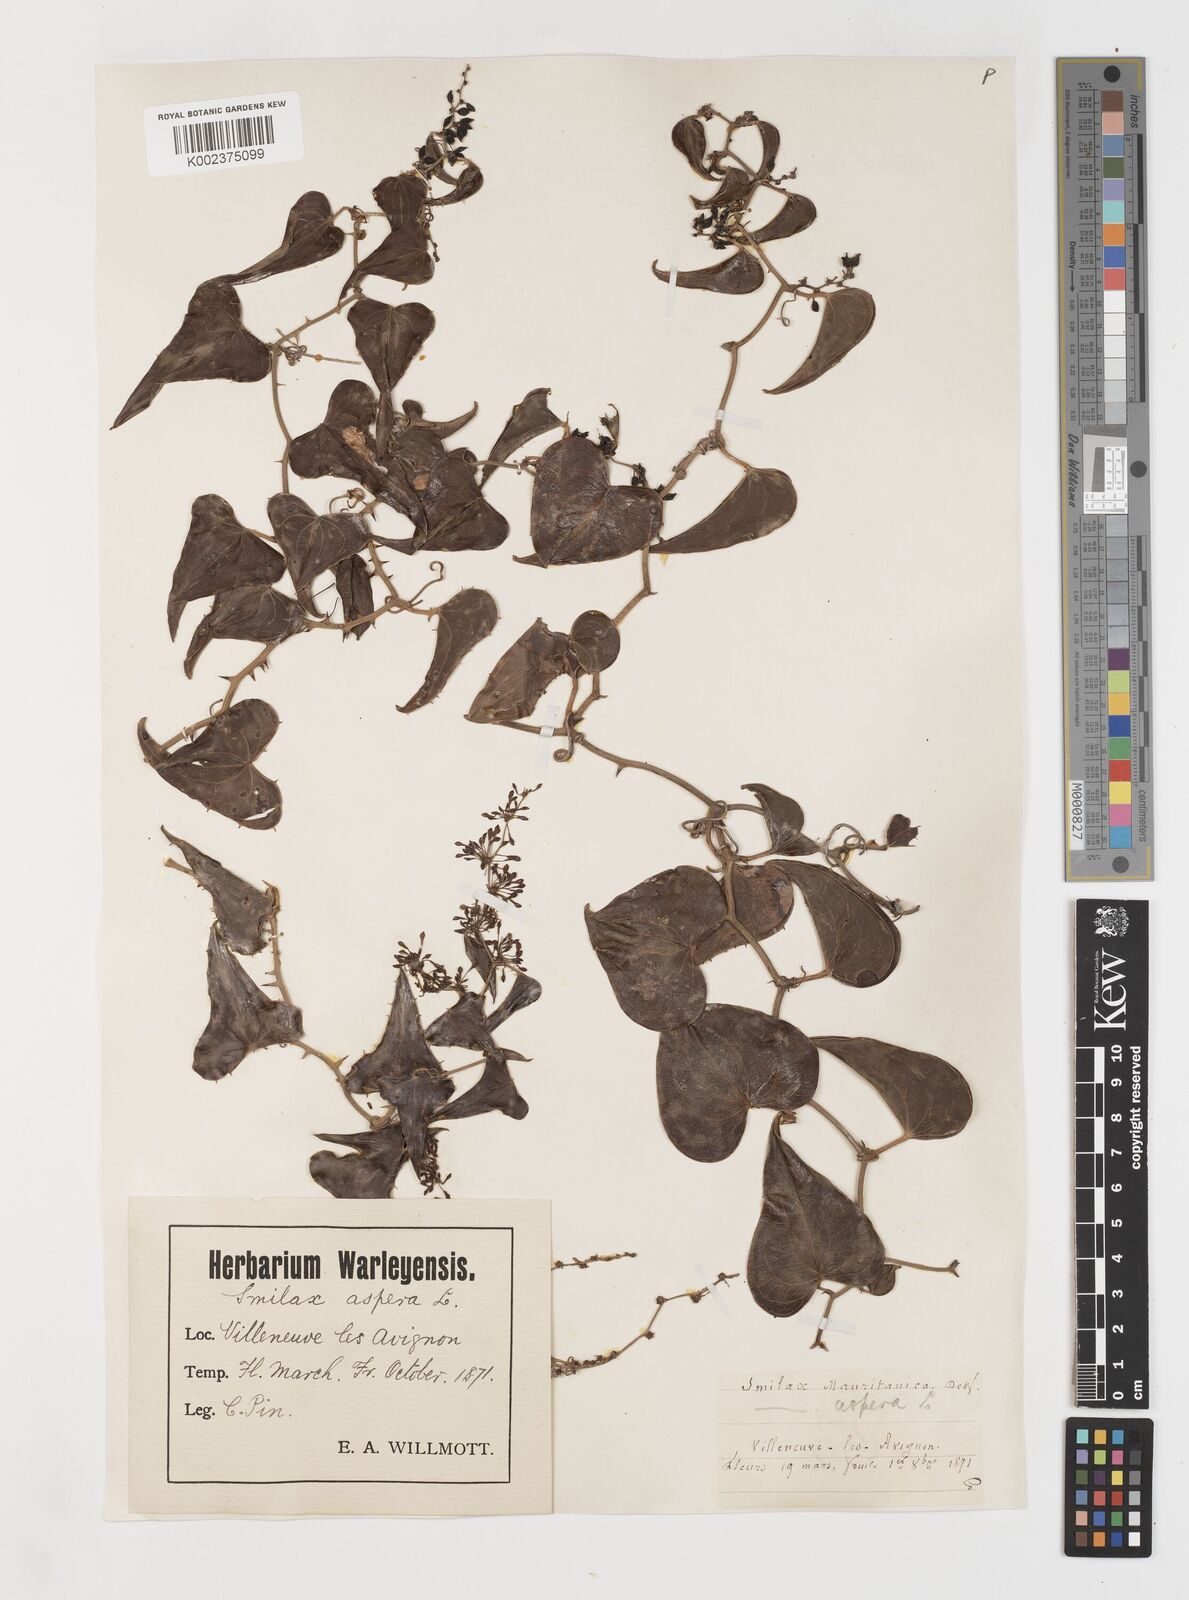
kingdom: Plantae
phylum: Tracheophyta
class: Liliopsida
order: Liliales
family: Smilacaceae
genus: Smilax
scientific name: Smilax aspera
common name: Common smilax
